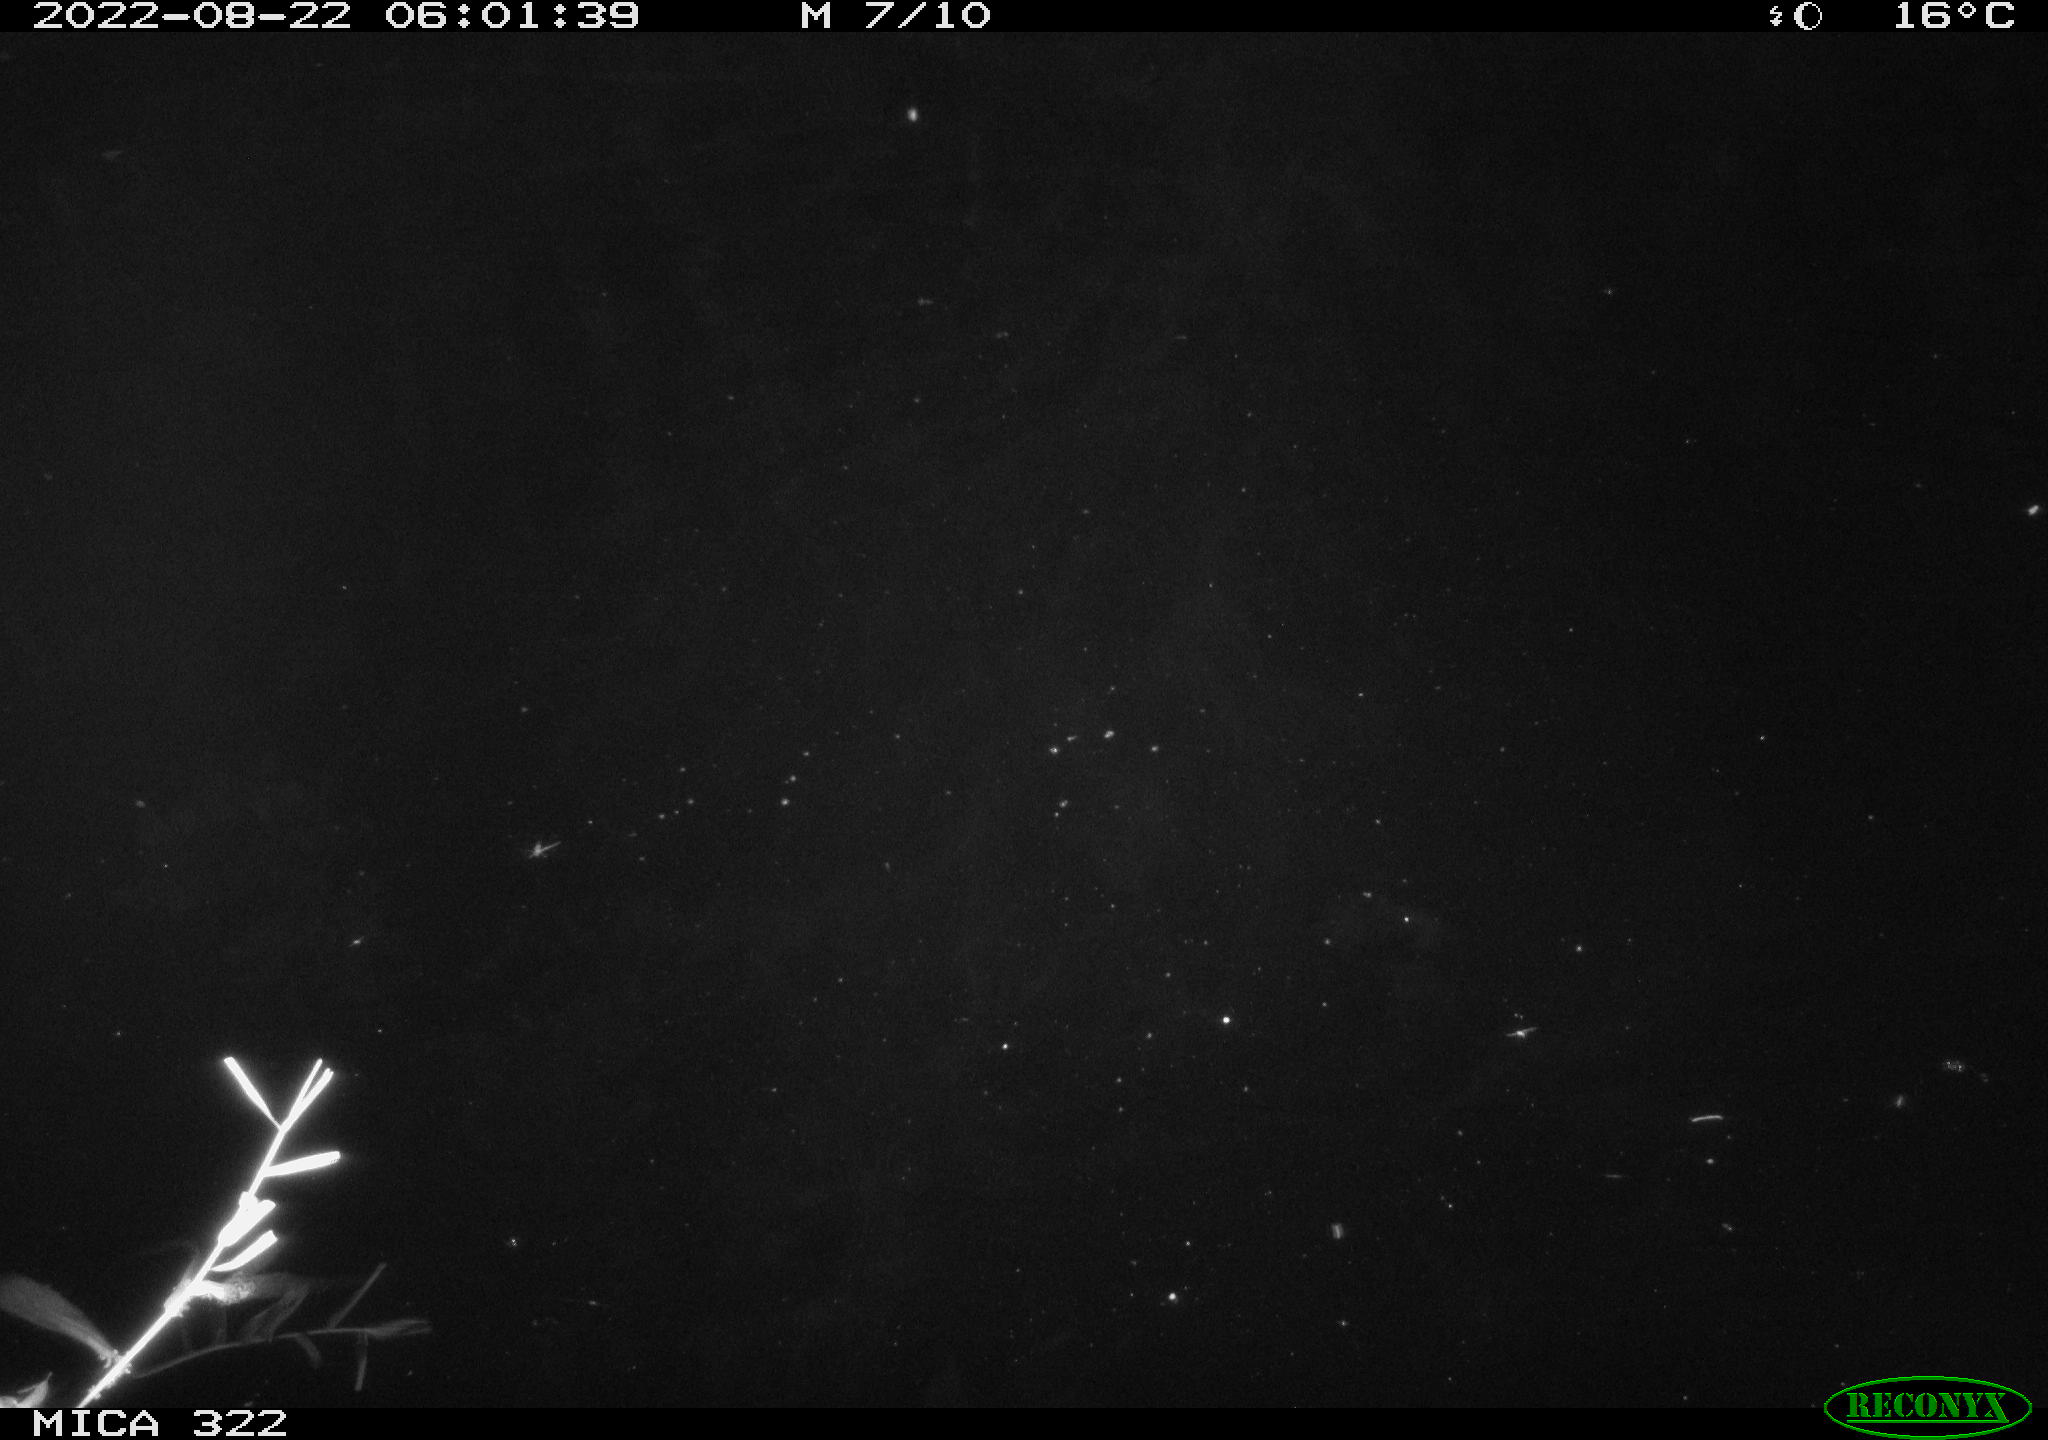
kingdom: Animalia
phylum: Chordata
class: Mammalia
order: Rodentia
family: Muridae
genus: Rattus
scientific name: Rattus norvegicus
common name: Brown rat
